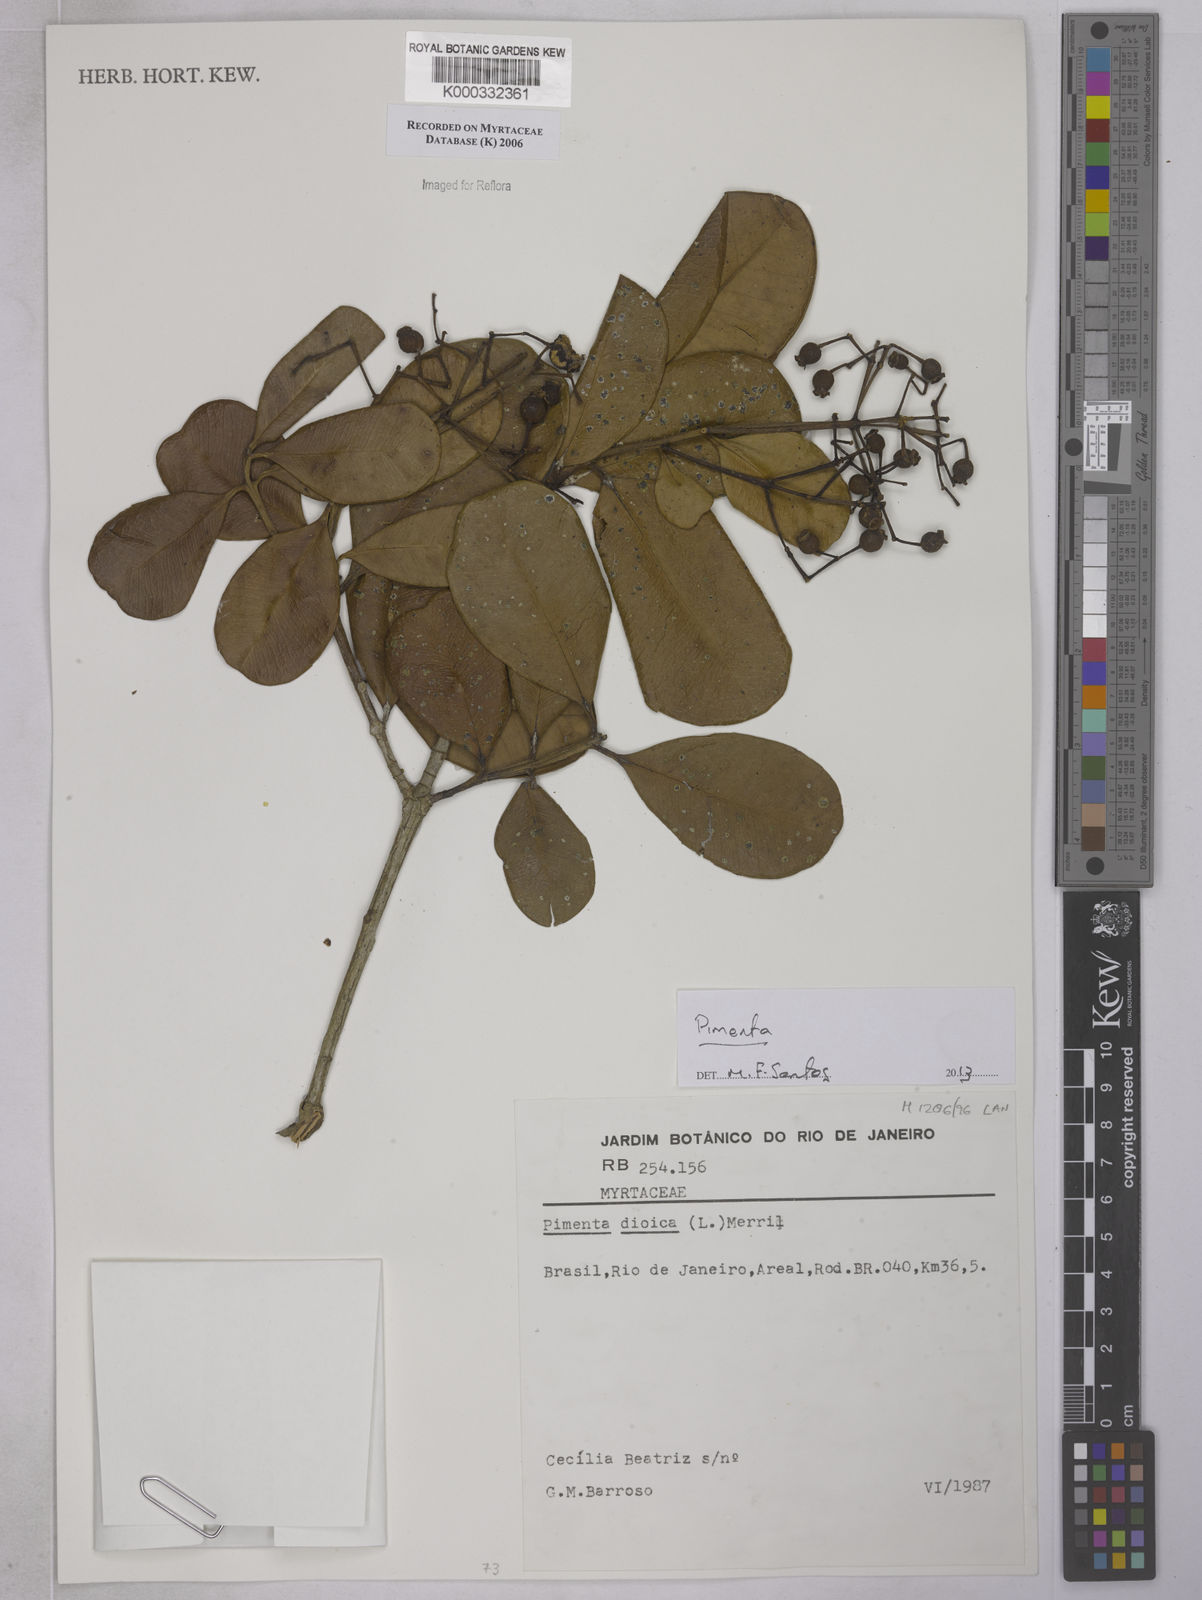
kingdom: Plantae
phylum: Tracheophyta
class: Magnoliopsida
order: Myrtales
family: Myrtaceae
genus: Myrcia
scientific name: Myrcia
